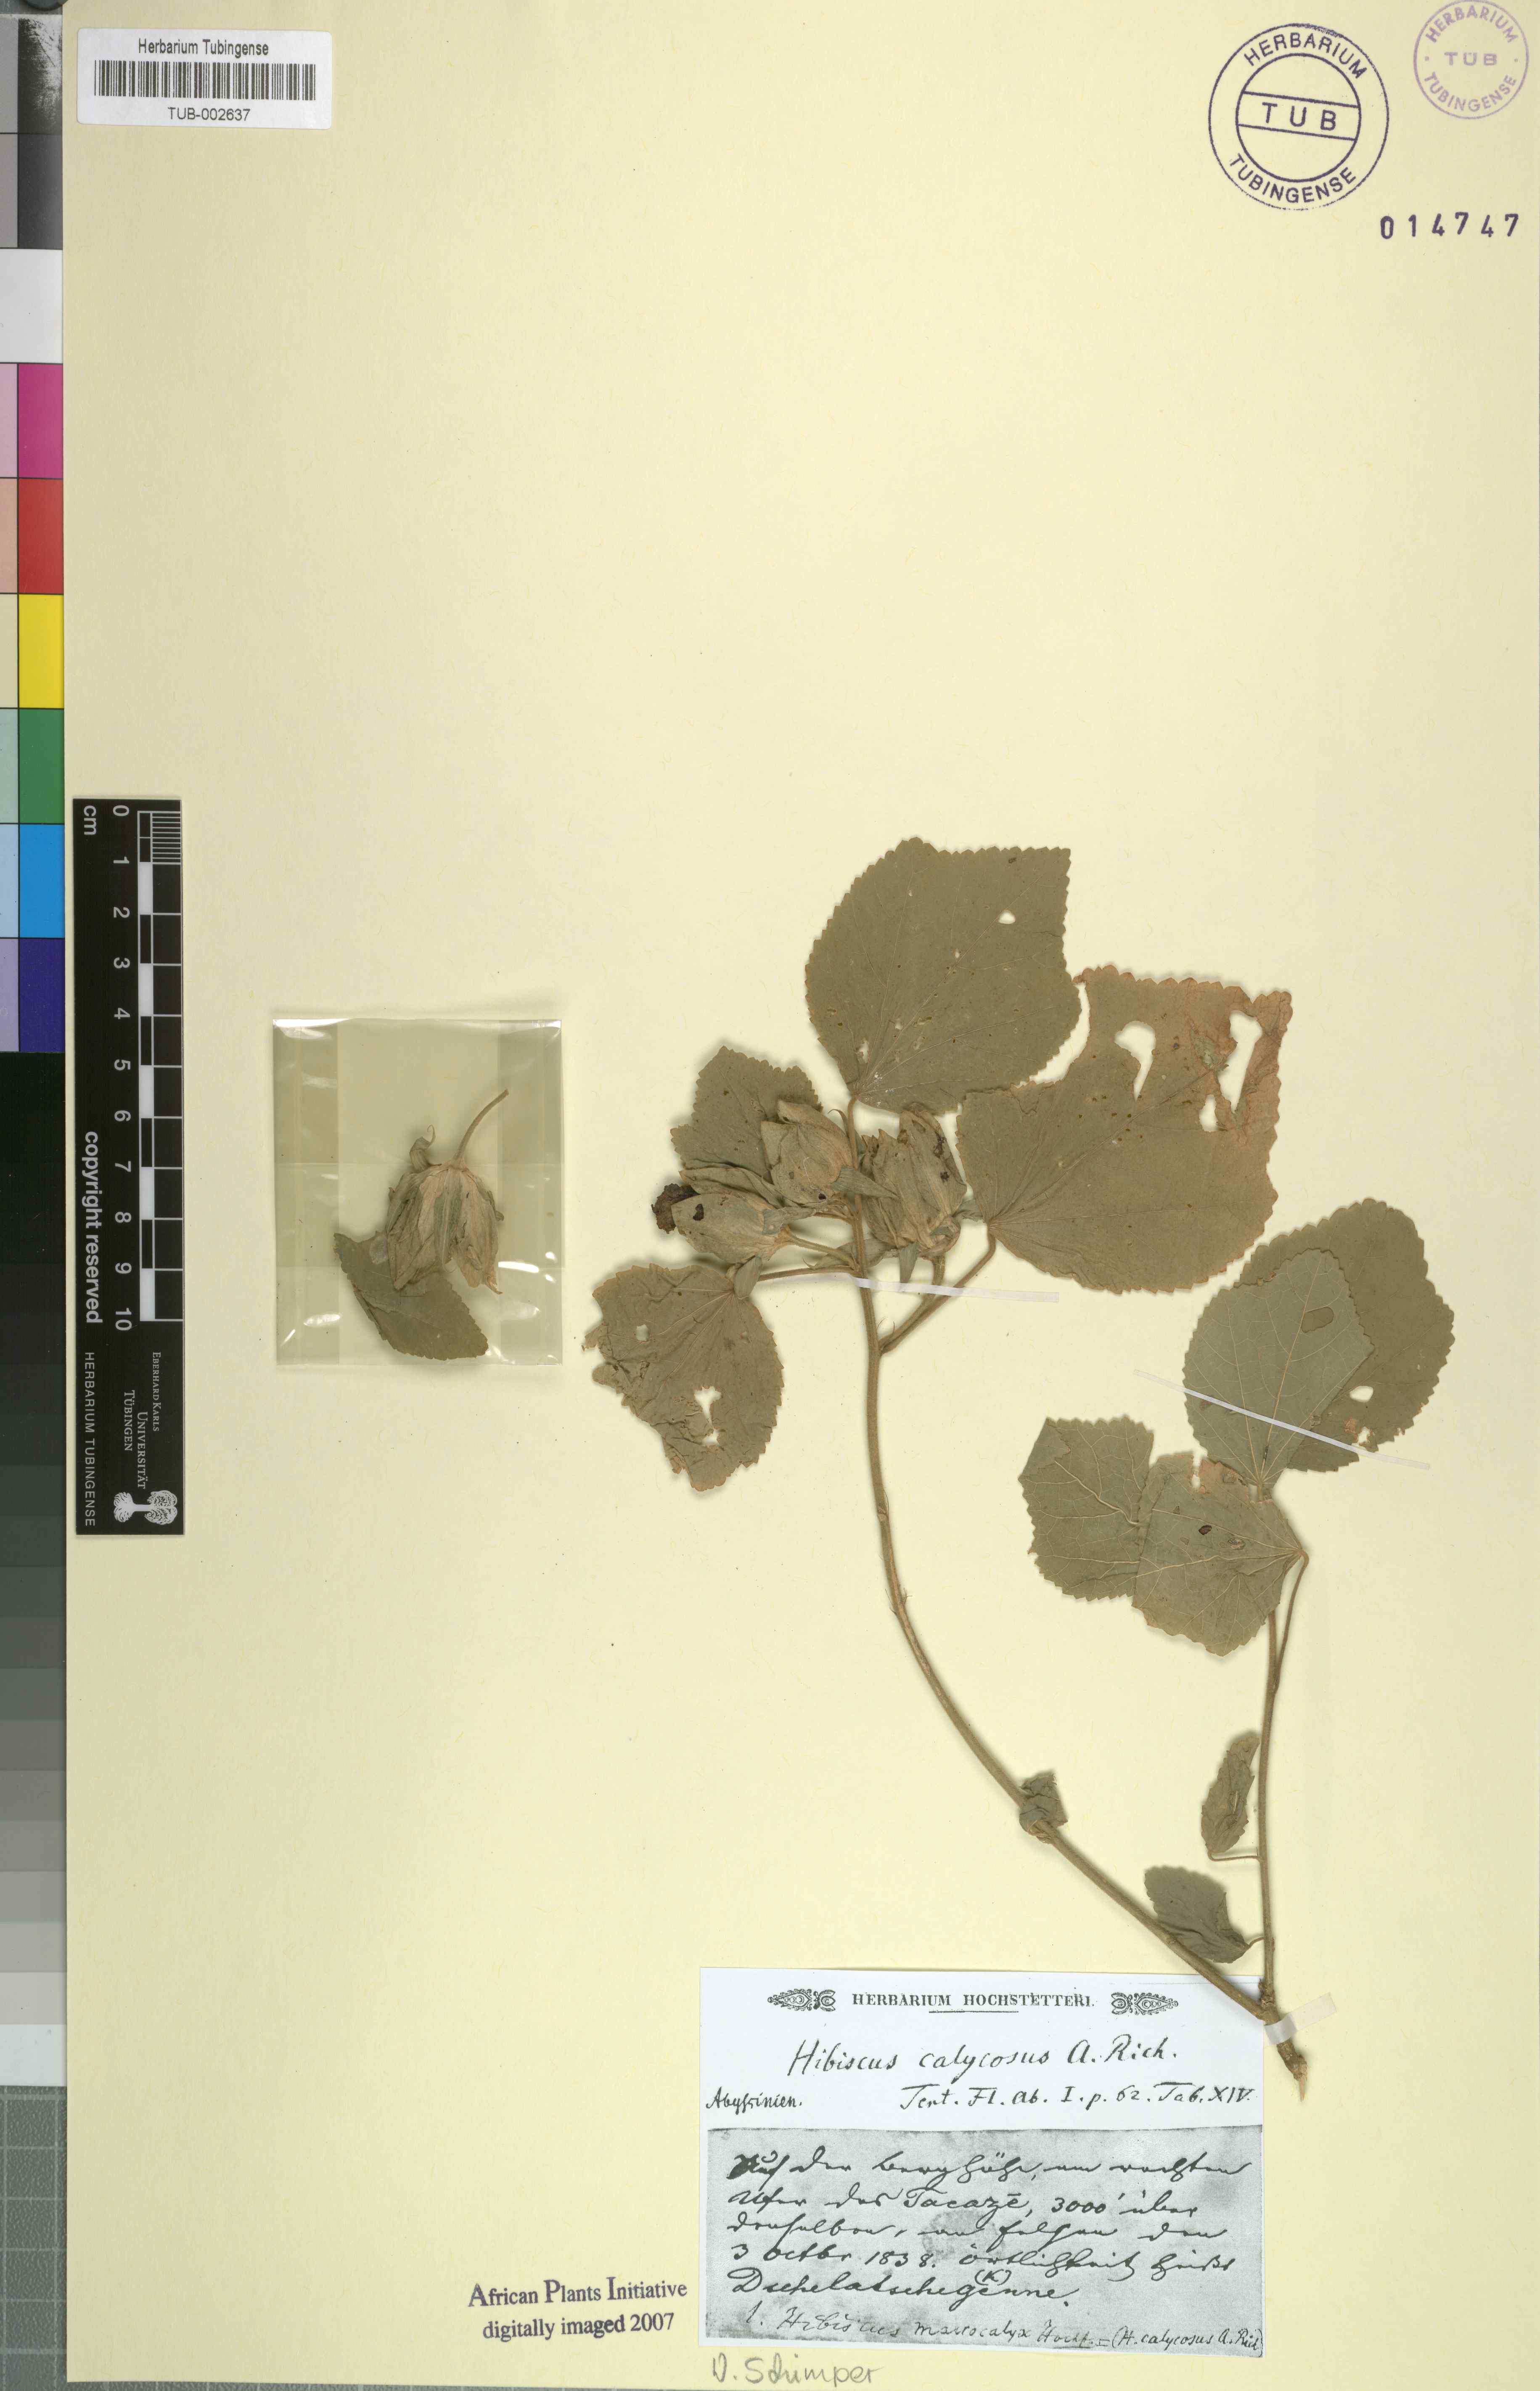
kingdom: Plantae
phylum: Tracheophyta
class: Magnoliopsida
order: Malvales
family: Malvaceae
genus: Hibiscus
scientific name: Hibiscus calyphyllus
